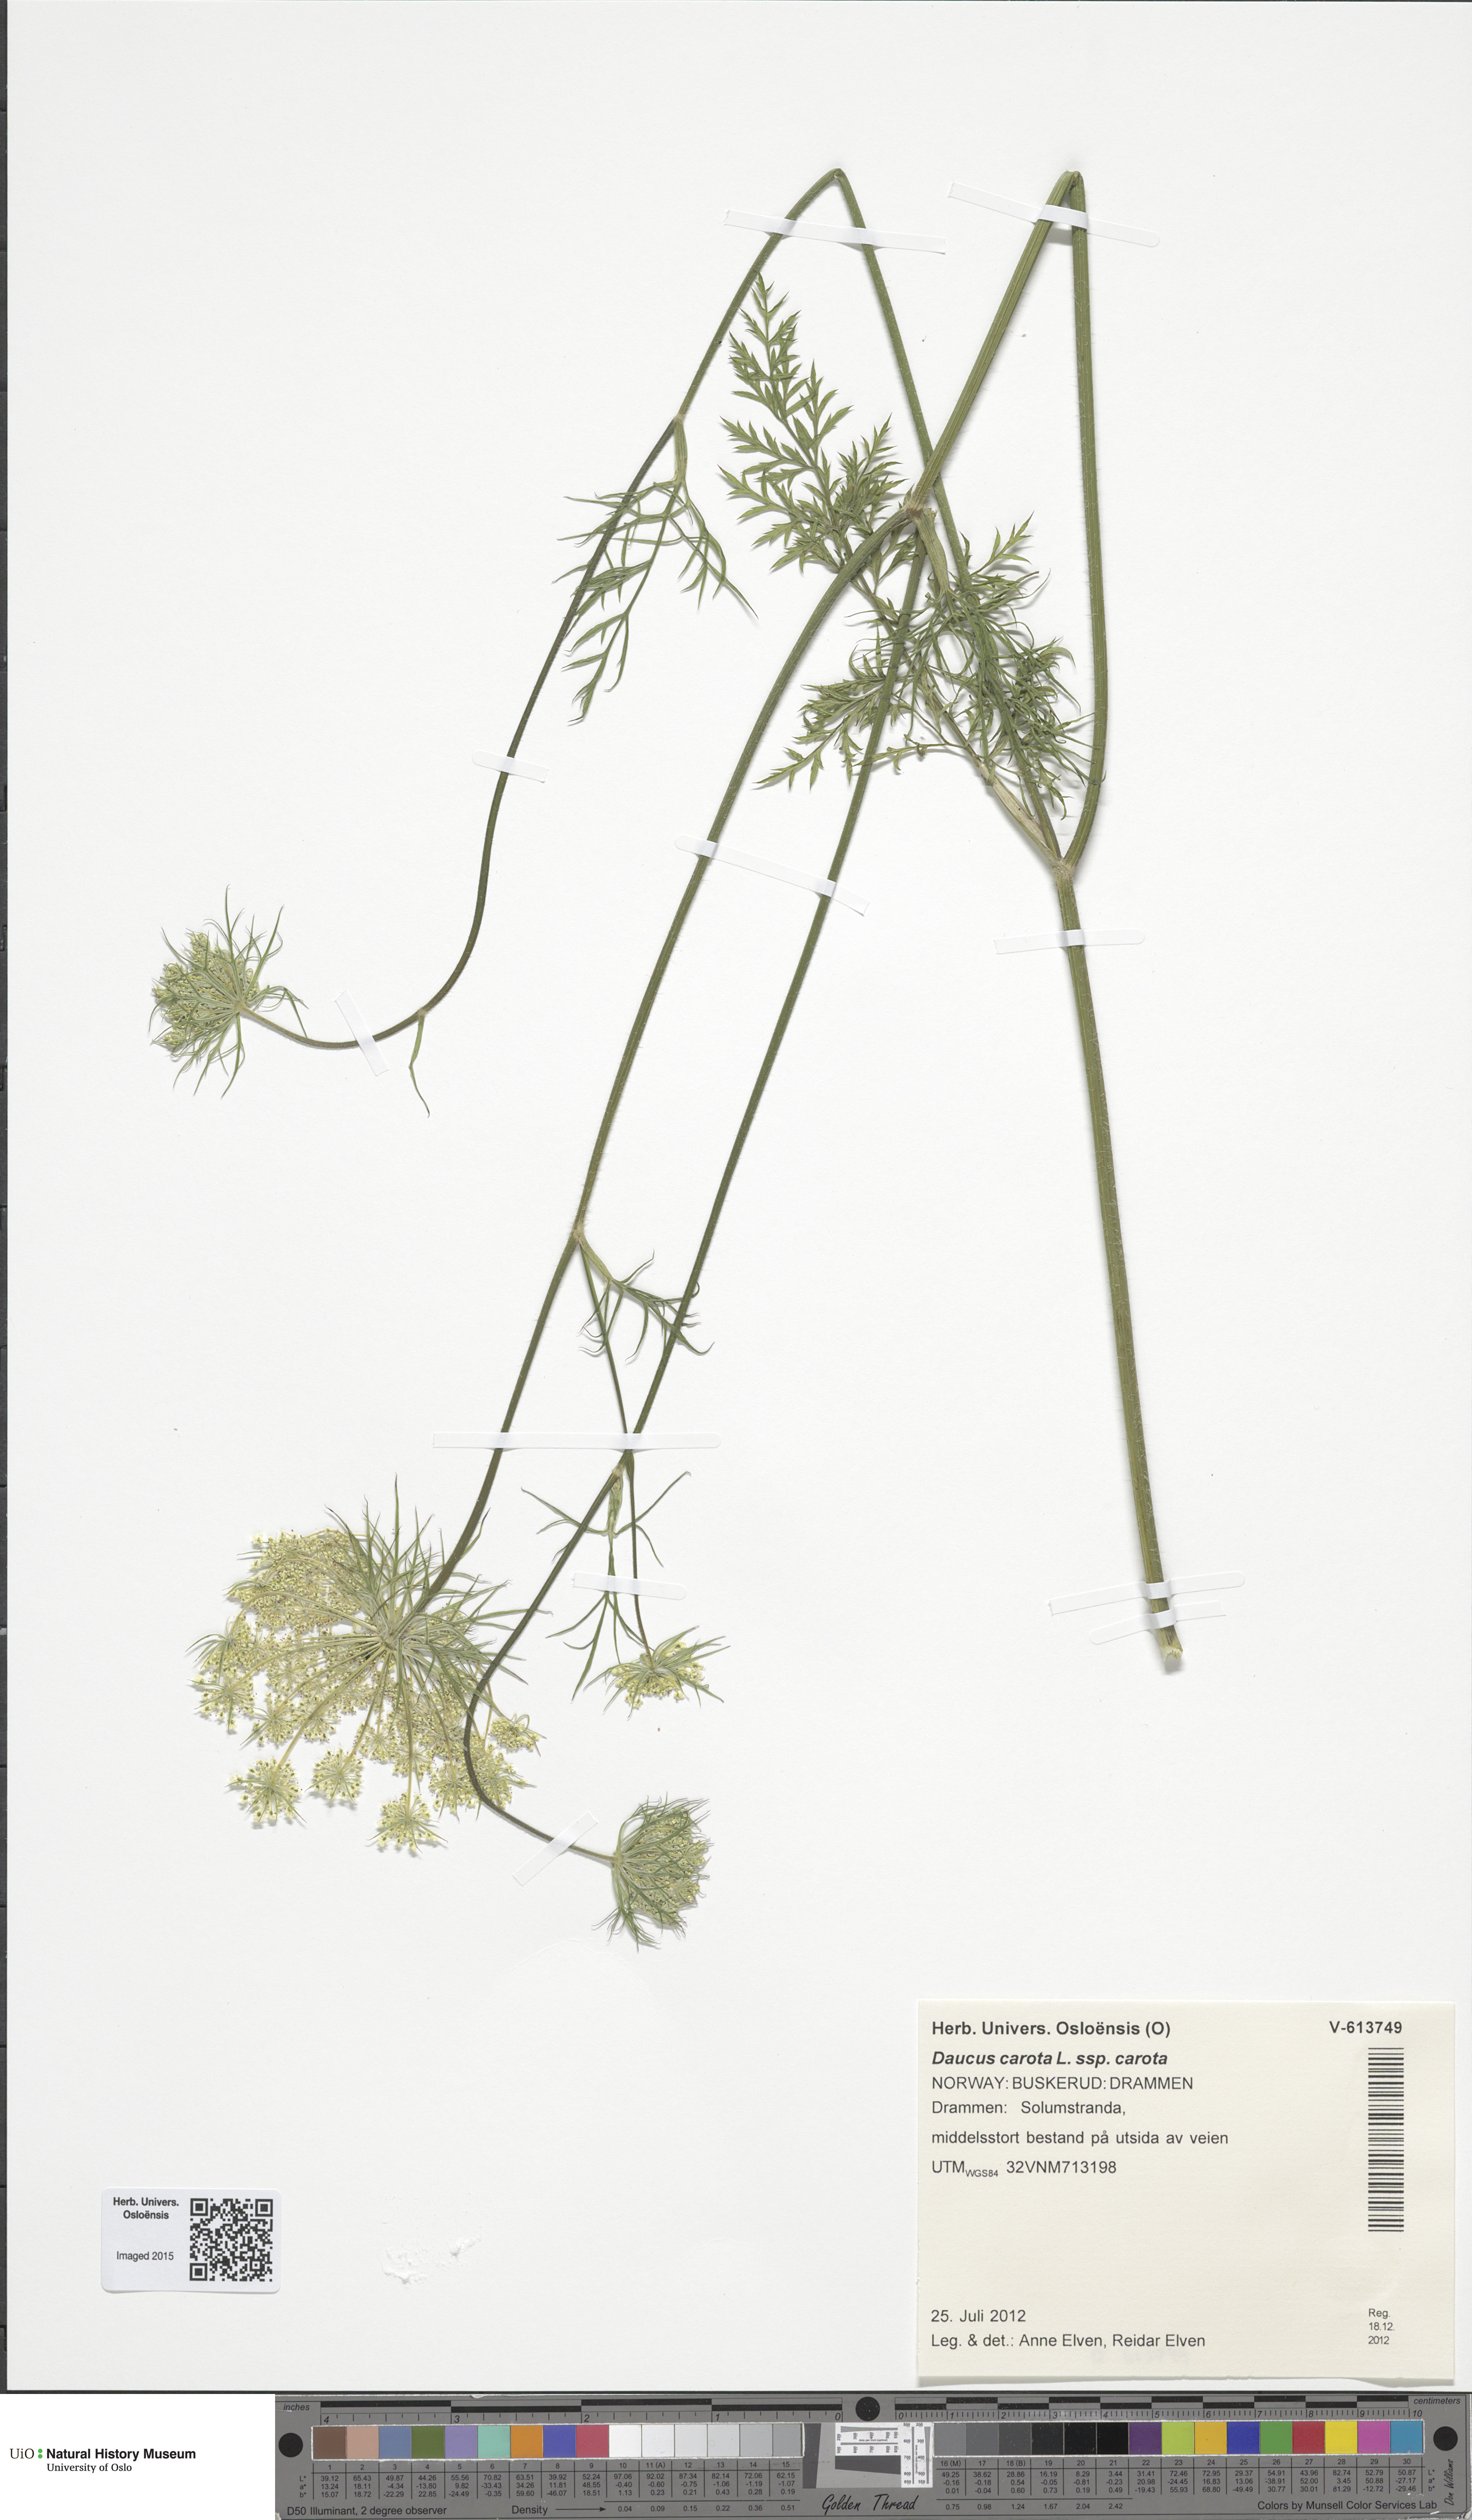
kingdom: Plantae
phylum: Tracheophyta
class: Magnoliopsida
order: Apiales
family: Apiaceae
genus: Daucus
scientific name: Daucus carota
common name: Wild carrot
